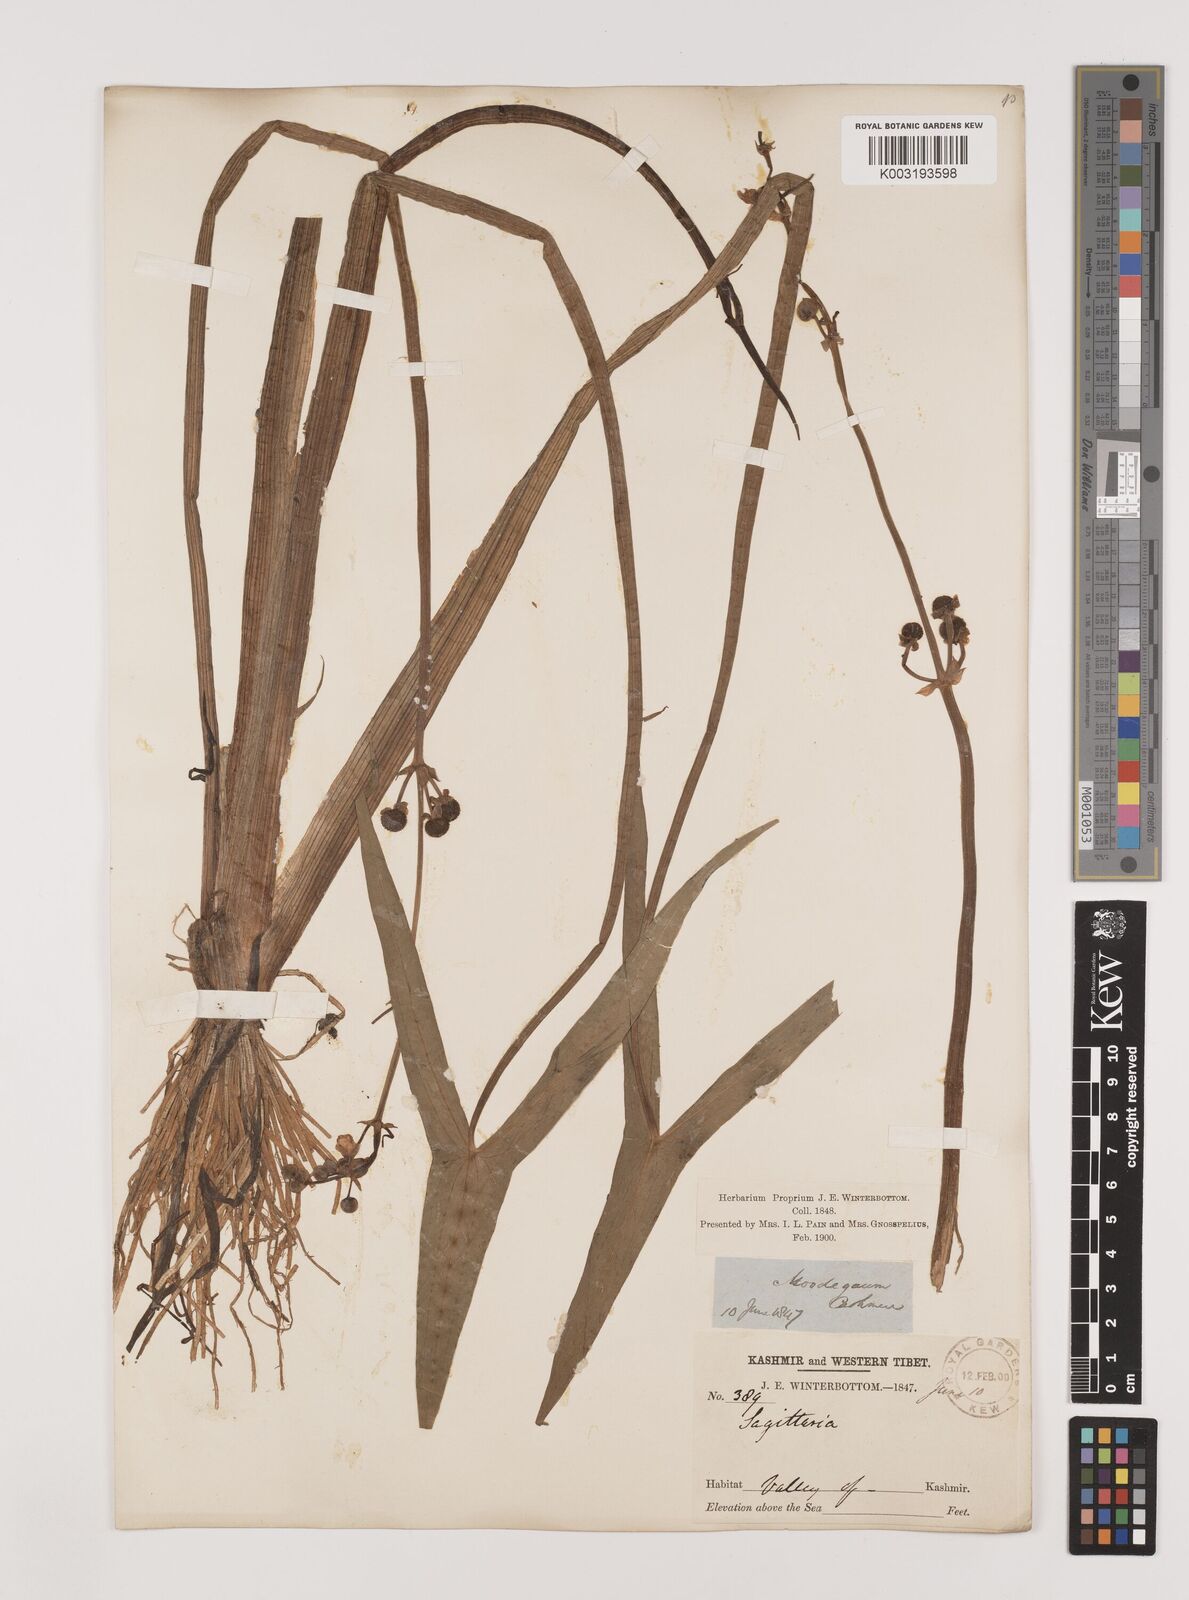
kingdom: Plantae
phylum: Tracheophyta
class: Liliopsida
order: Alismatales
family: Alismataceae
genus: Sagittaria
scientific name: Sagittaria sagittifolia
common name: Arrowhead
